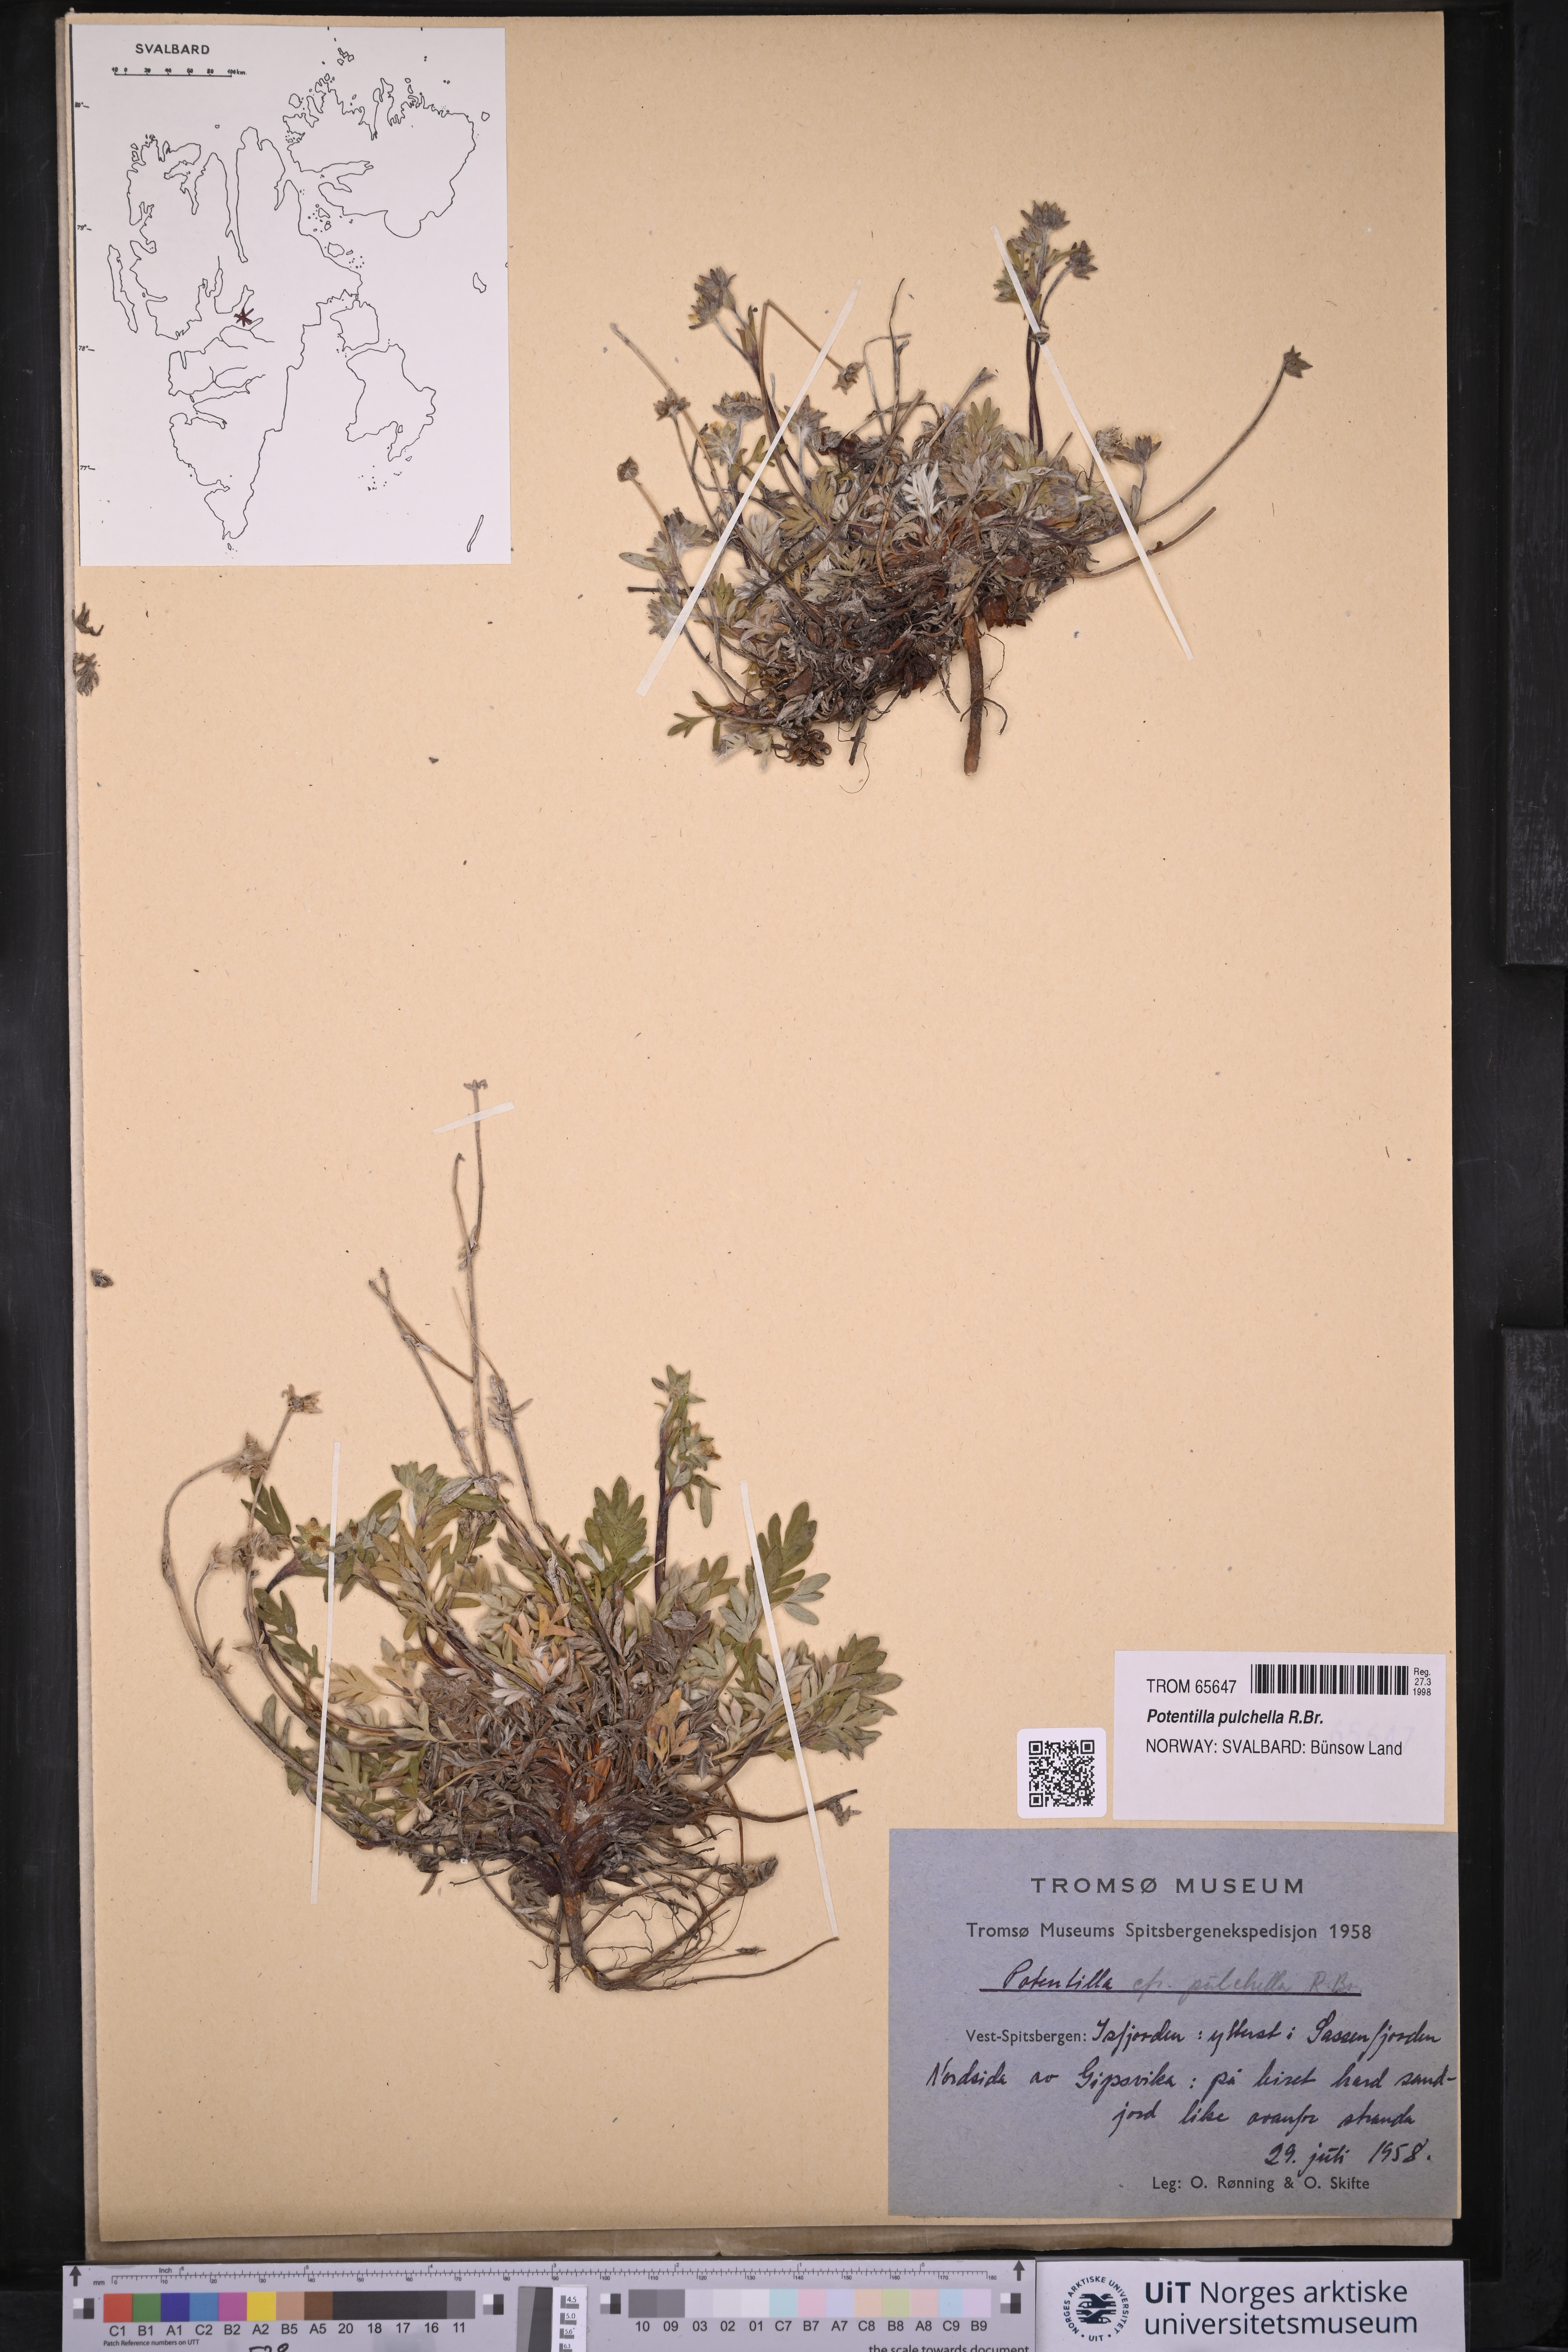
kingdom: Plantae
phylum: Tracheophyta
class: Magnoliopsida
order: Rosales
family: Rosaceae
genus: Potentilla
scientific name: Potentilla pulchella
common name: Pretty cinquefoil
